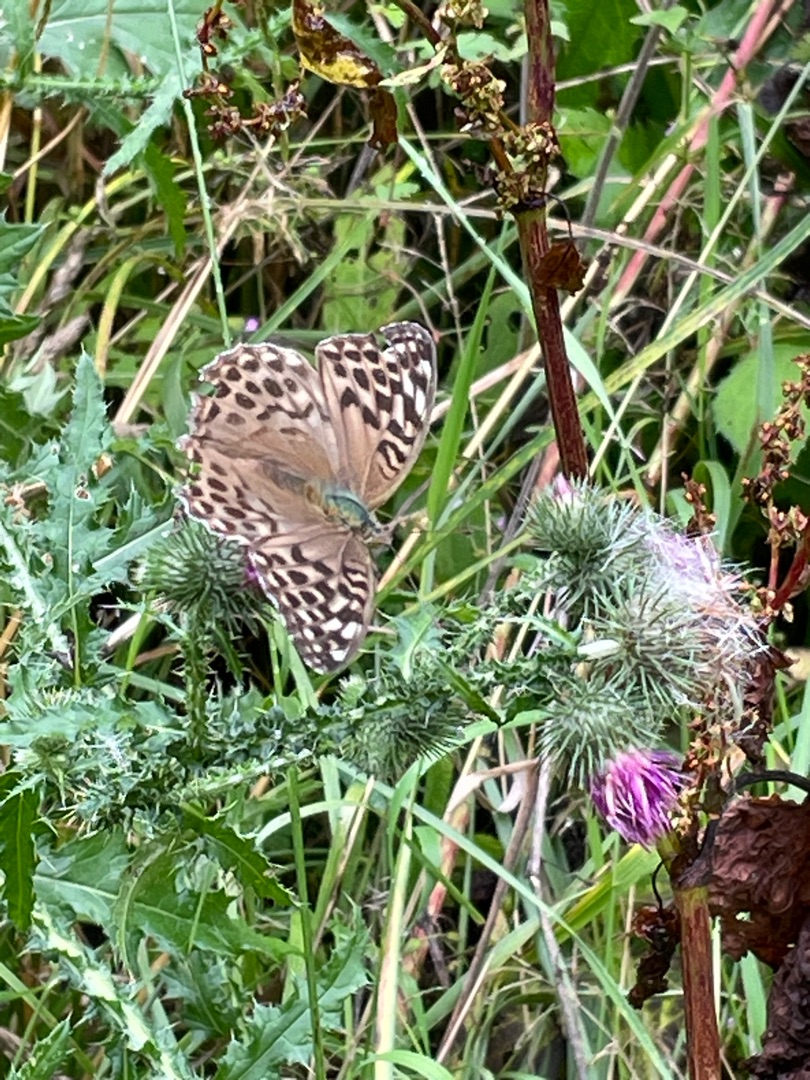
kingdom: Animalia
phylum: Arthropoda
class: Insecta
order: Lepidoptera
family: Nymphalidae
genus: Argynnis
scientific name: Argynnis paphia
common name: Kejserkåbe
